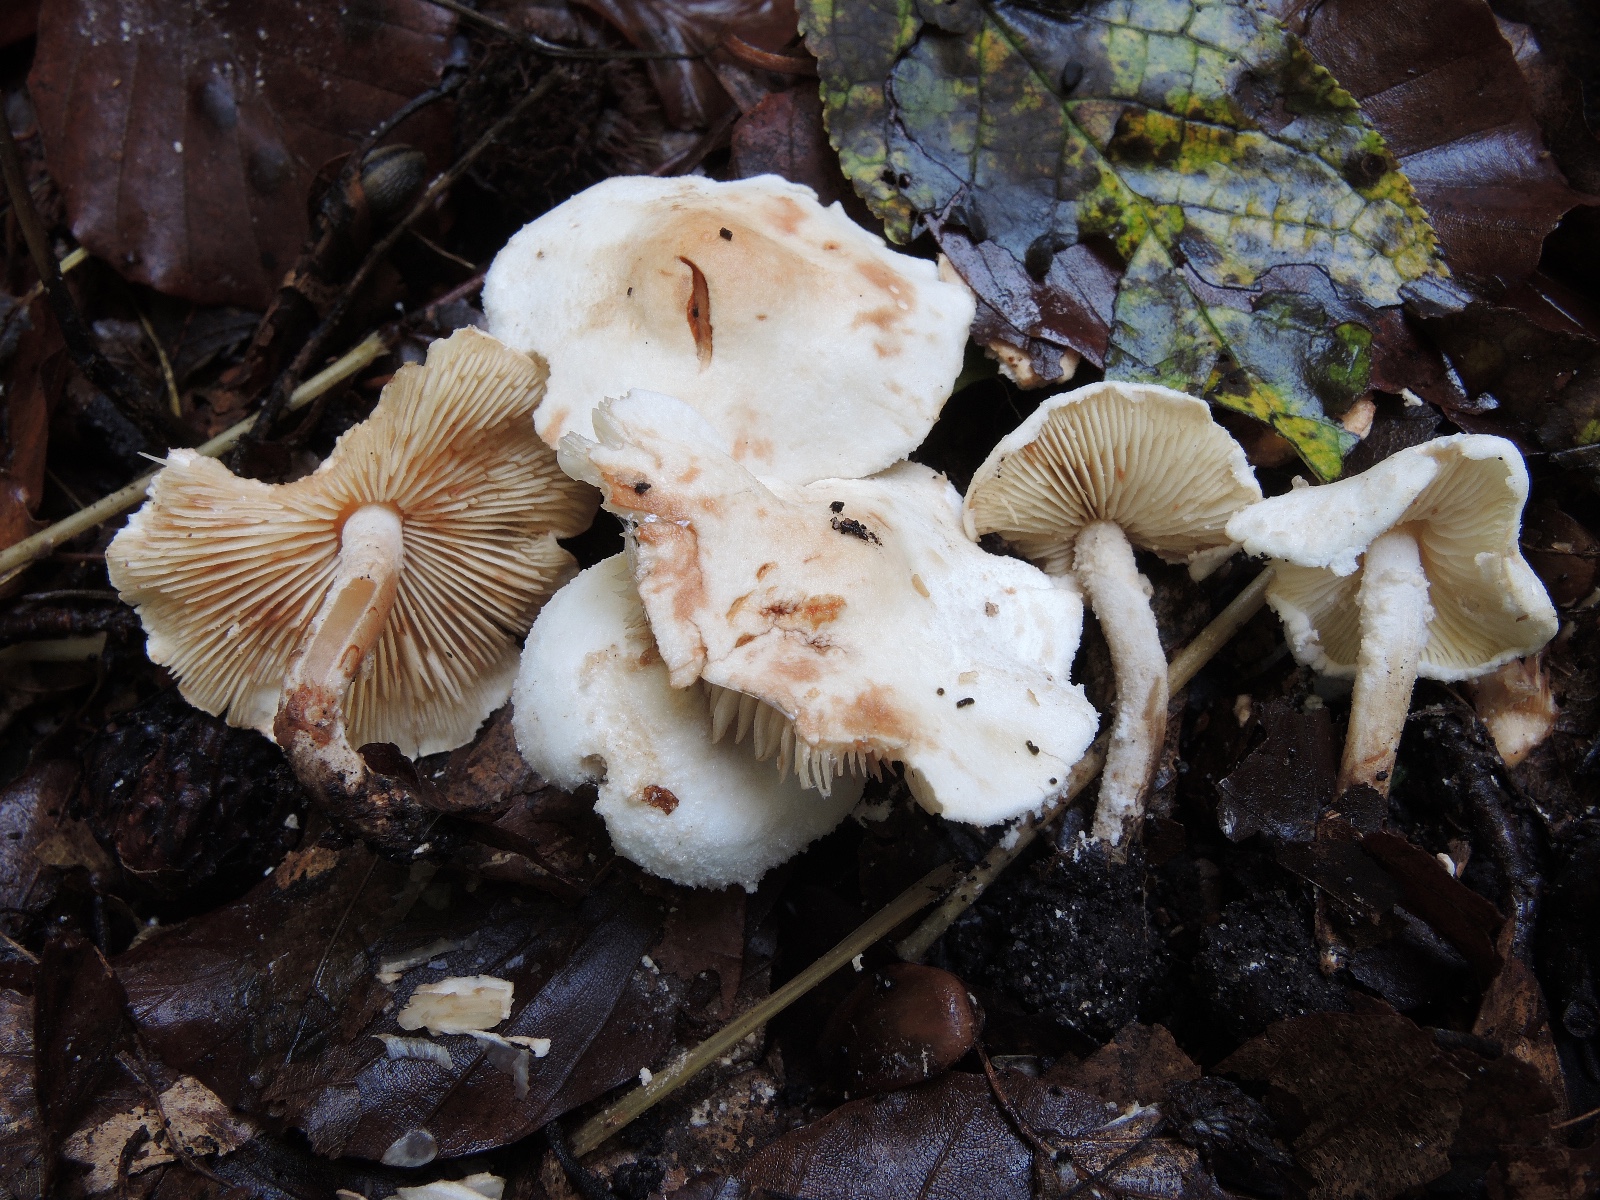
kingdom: Fungi
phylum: Basidiomycota
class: Agaricomycetes
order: Agaricales
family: Agaricaceae
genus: Cystolepiota
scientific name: Cystolepiota hetieri
